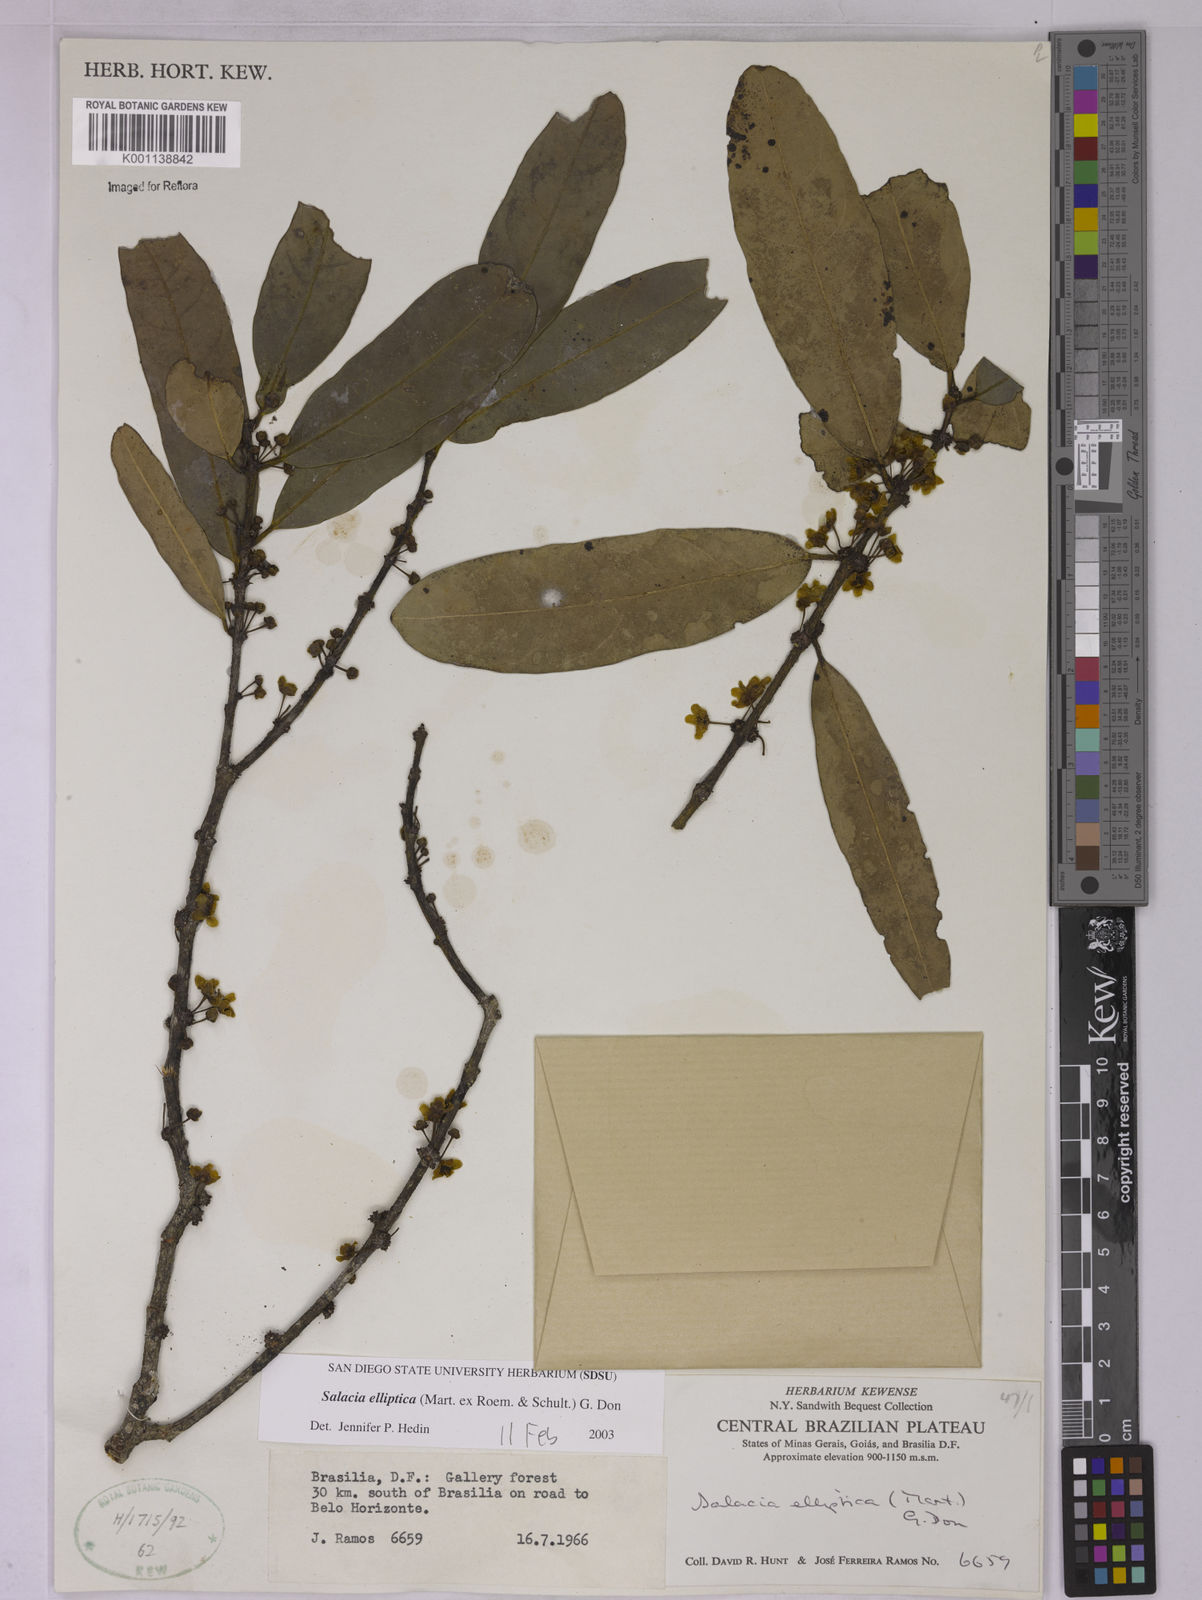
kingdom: Plantae
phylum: Tracheophyta
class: Magnoliopsida
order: Celastrales
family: Celastraceae
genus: Salacia
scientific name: Salacia elliptica
